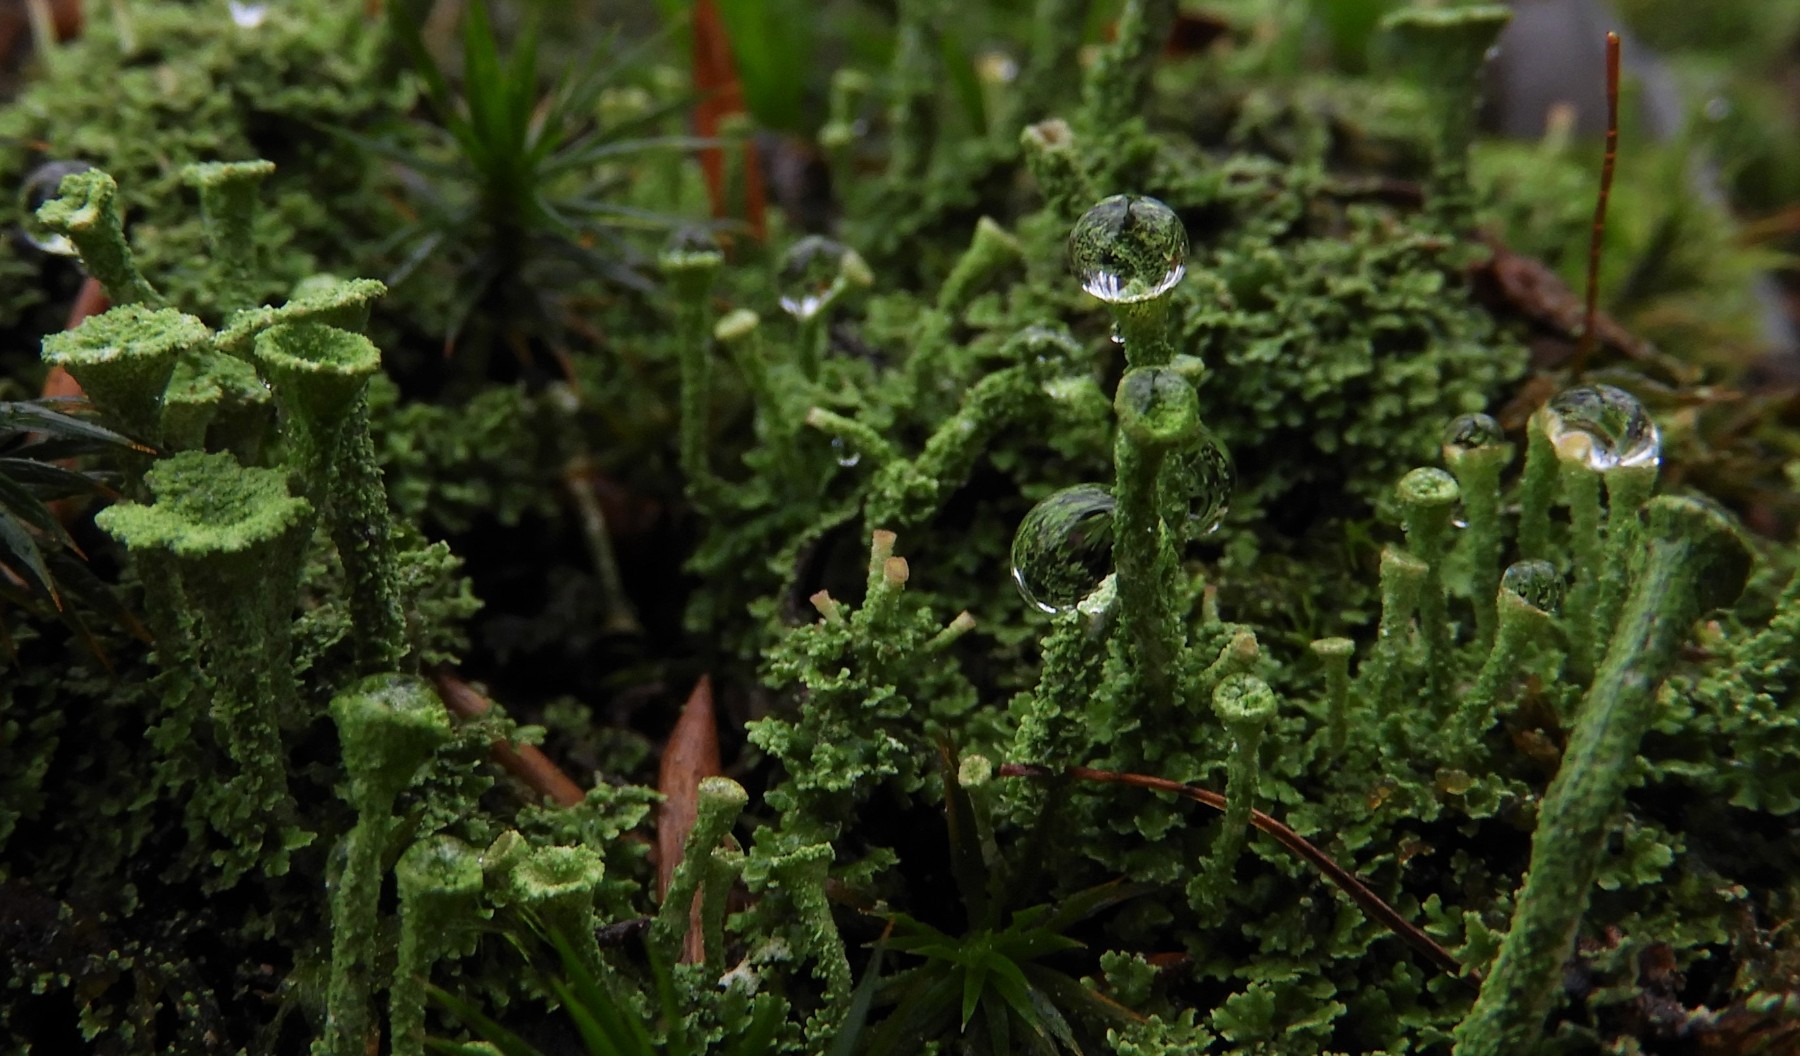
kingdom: Fungi
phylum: Ascomycota
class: Lecanoromycetes
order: Lecanorales
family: Cladoniaceae
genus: Cladonia
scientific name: Cladonia
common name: brungrøn bægerlav
